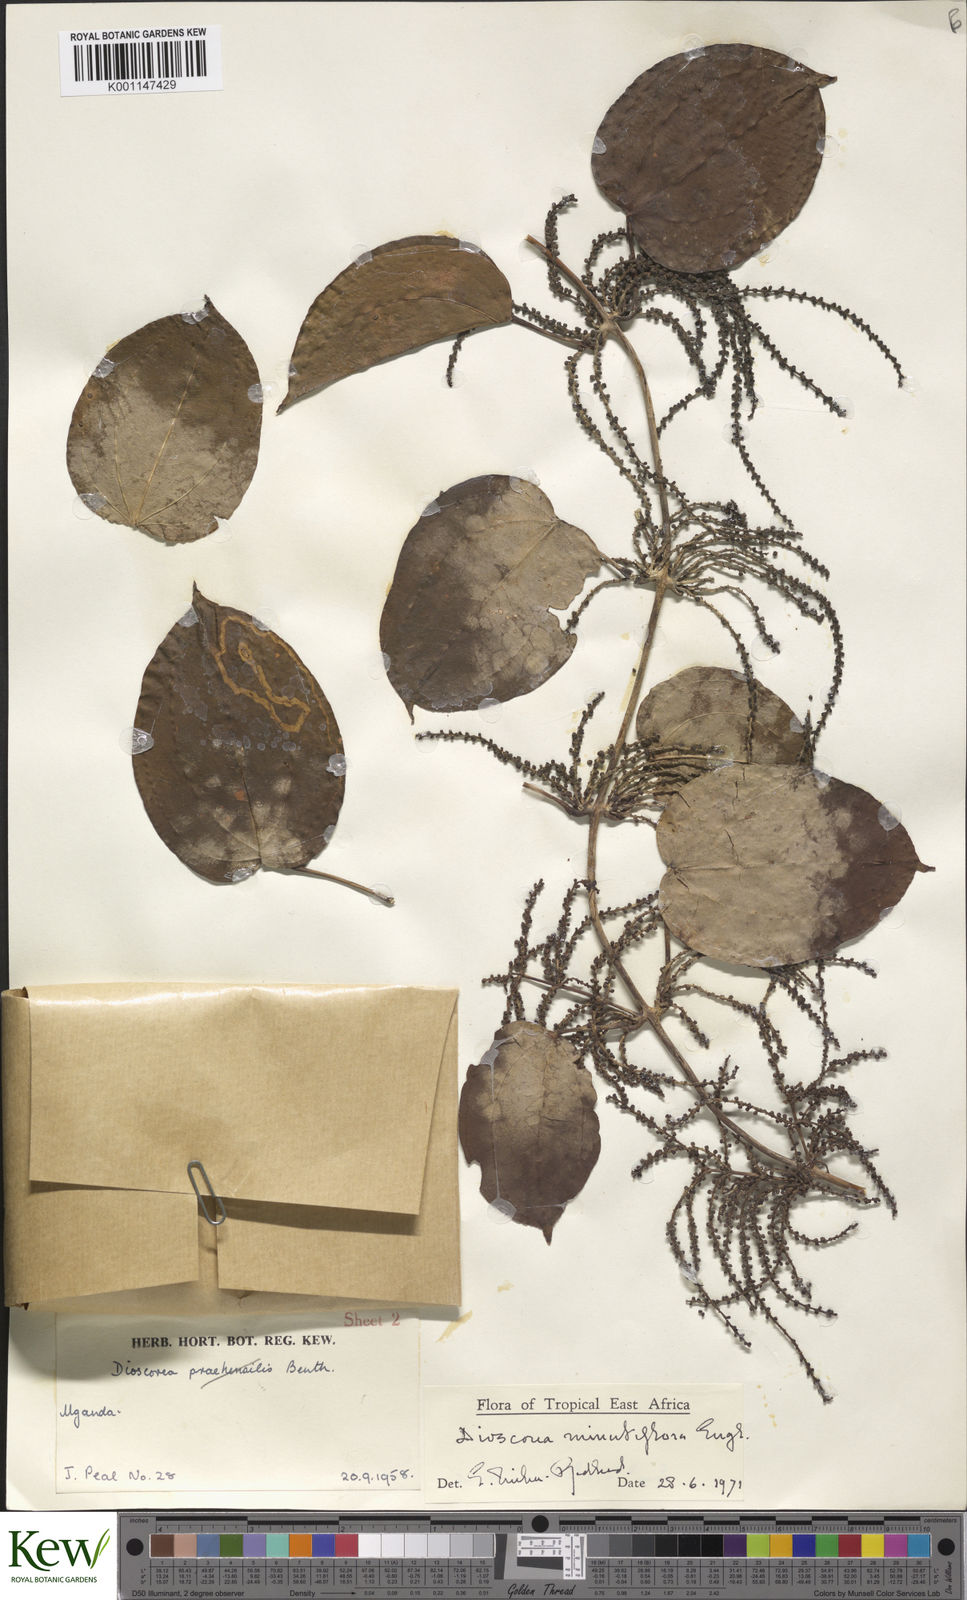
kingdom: Plantae
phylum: Tracheophyta
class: Liliopsida
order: Dioscoreales
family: Dioscoreaceae
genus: Dioscorea
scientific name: Dioscorea minutiflora
